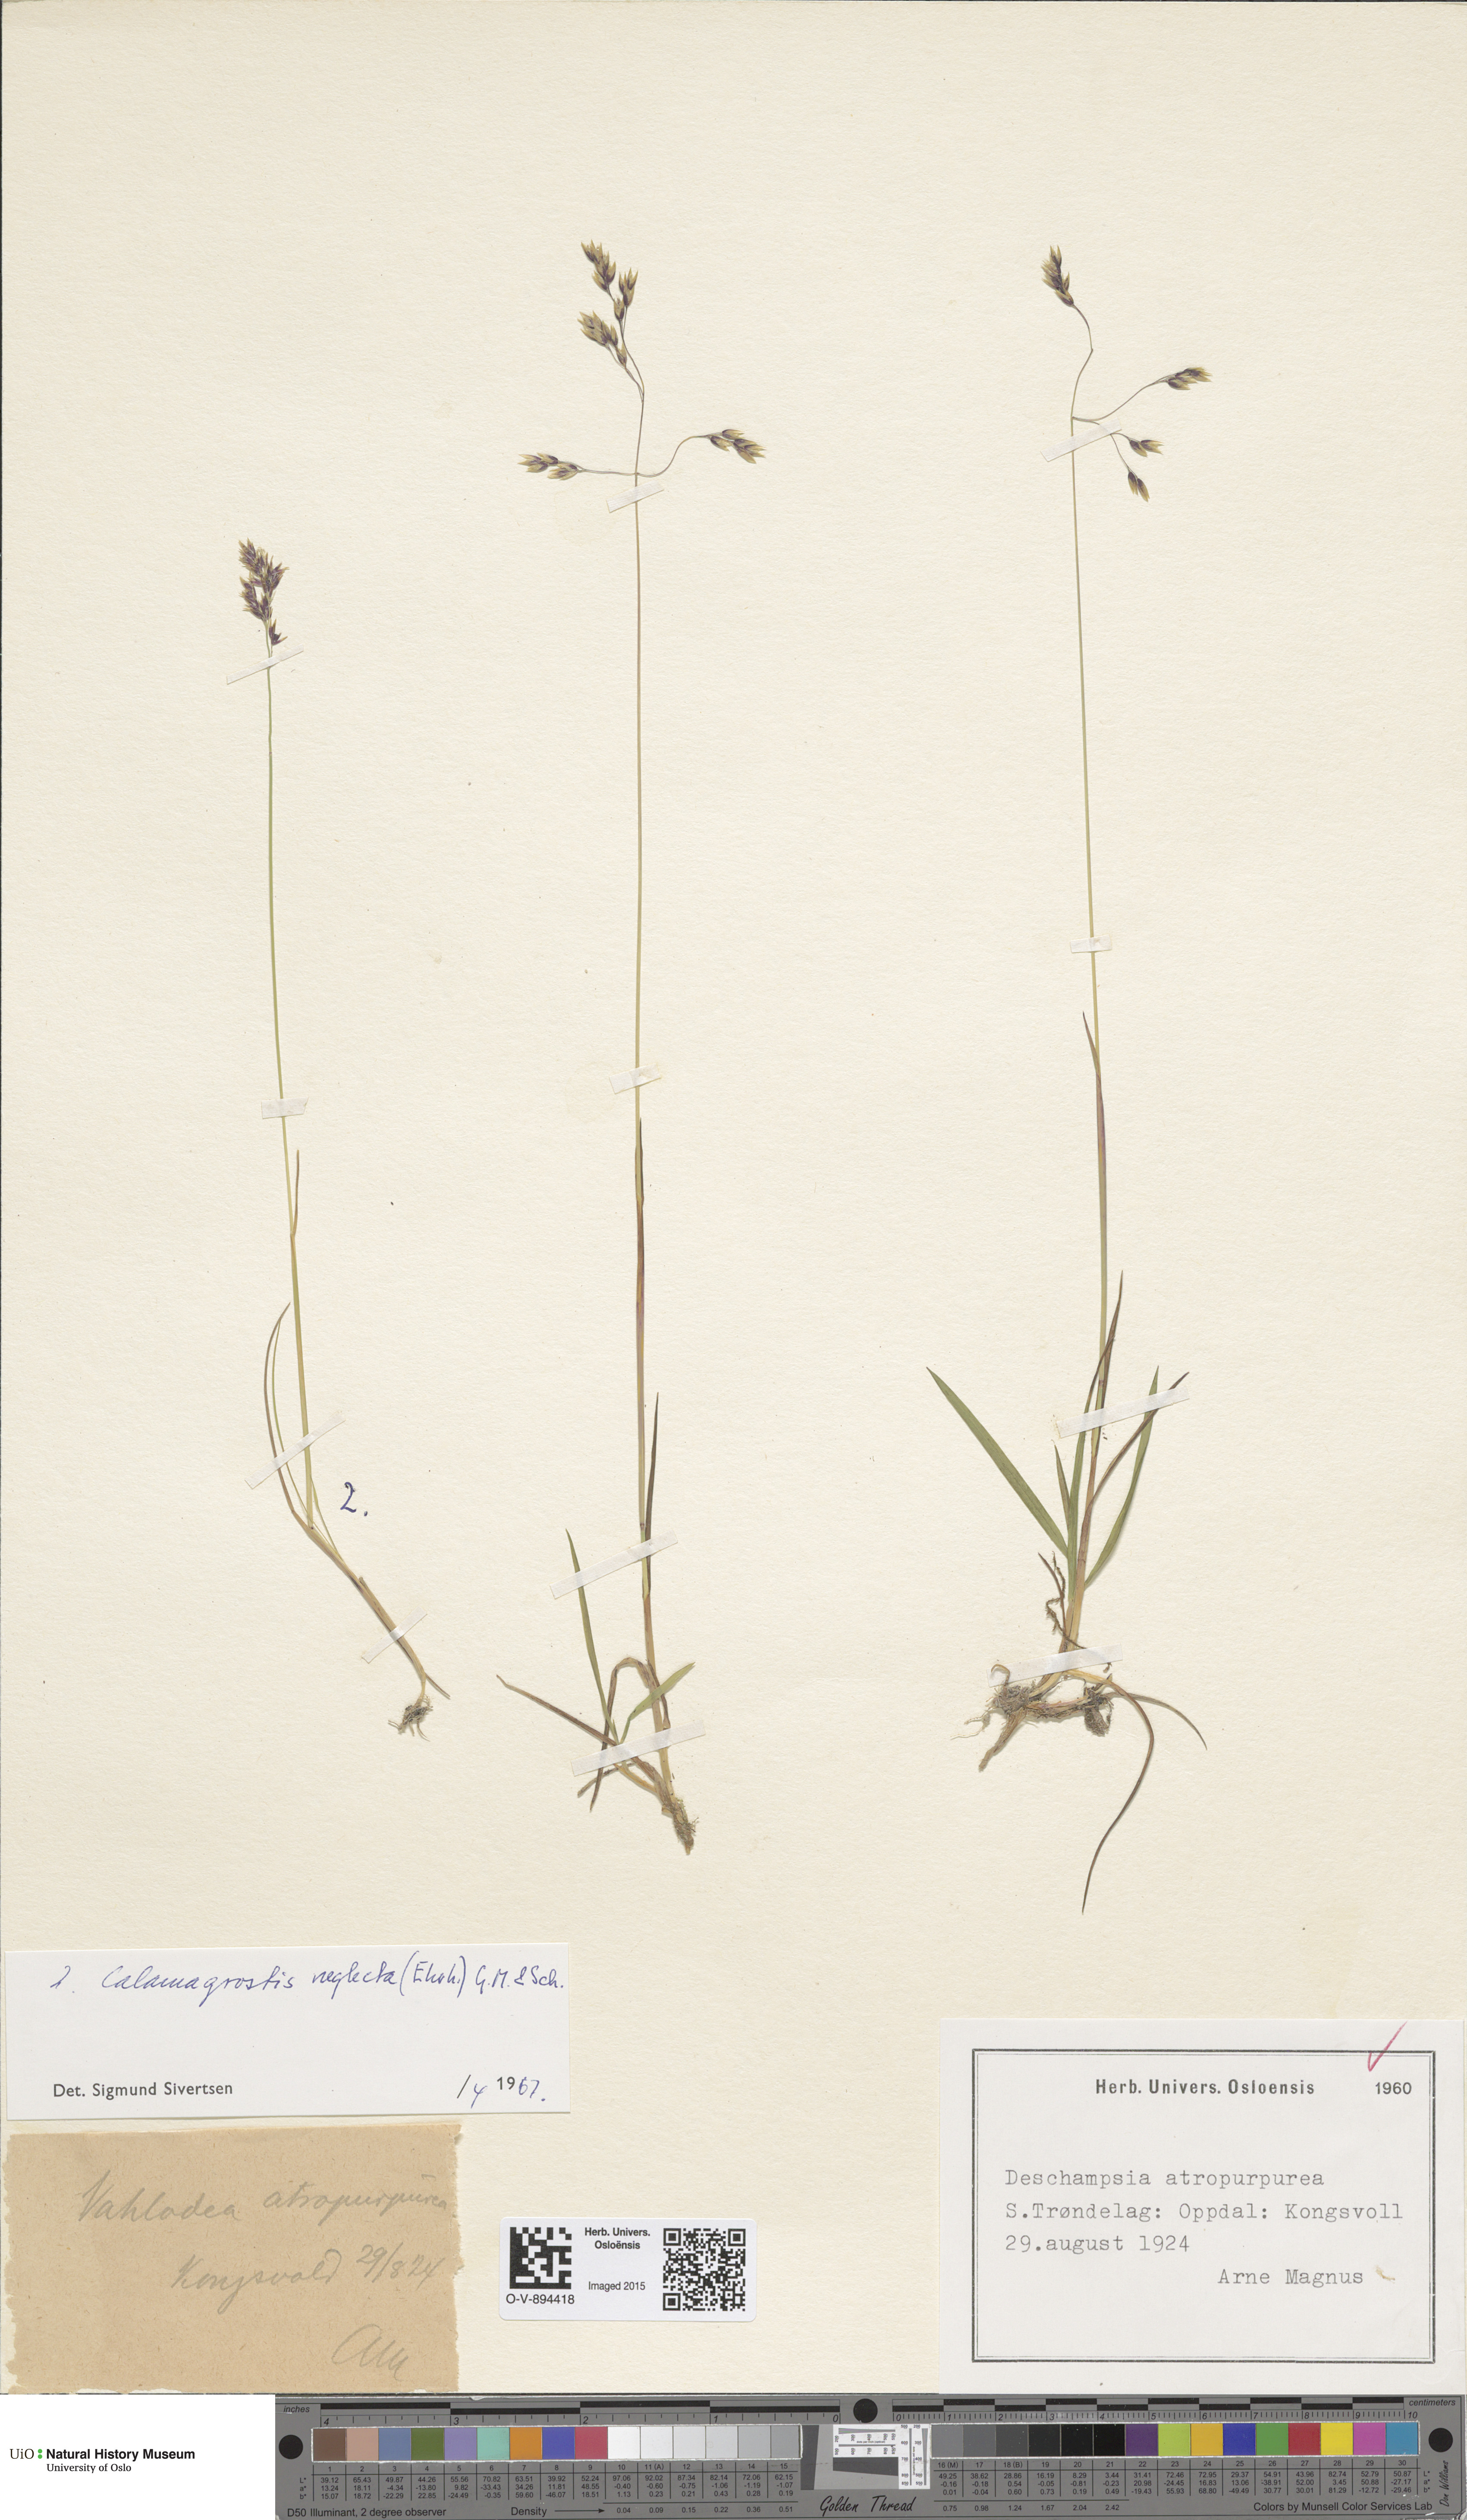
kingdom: Plantae
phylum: Tracheophyta
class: Liliopsida
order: Poales
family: Poaceae
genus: Achnatherum
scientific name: Achnatherum calamagrostis
